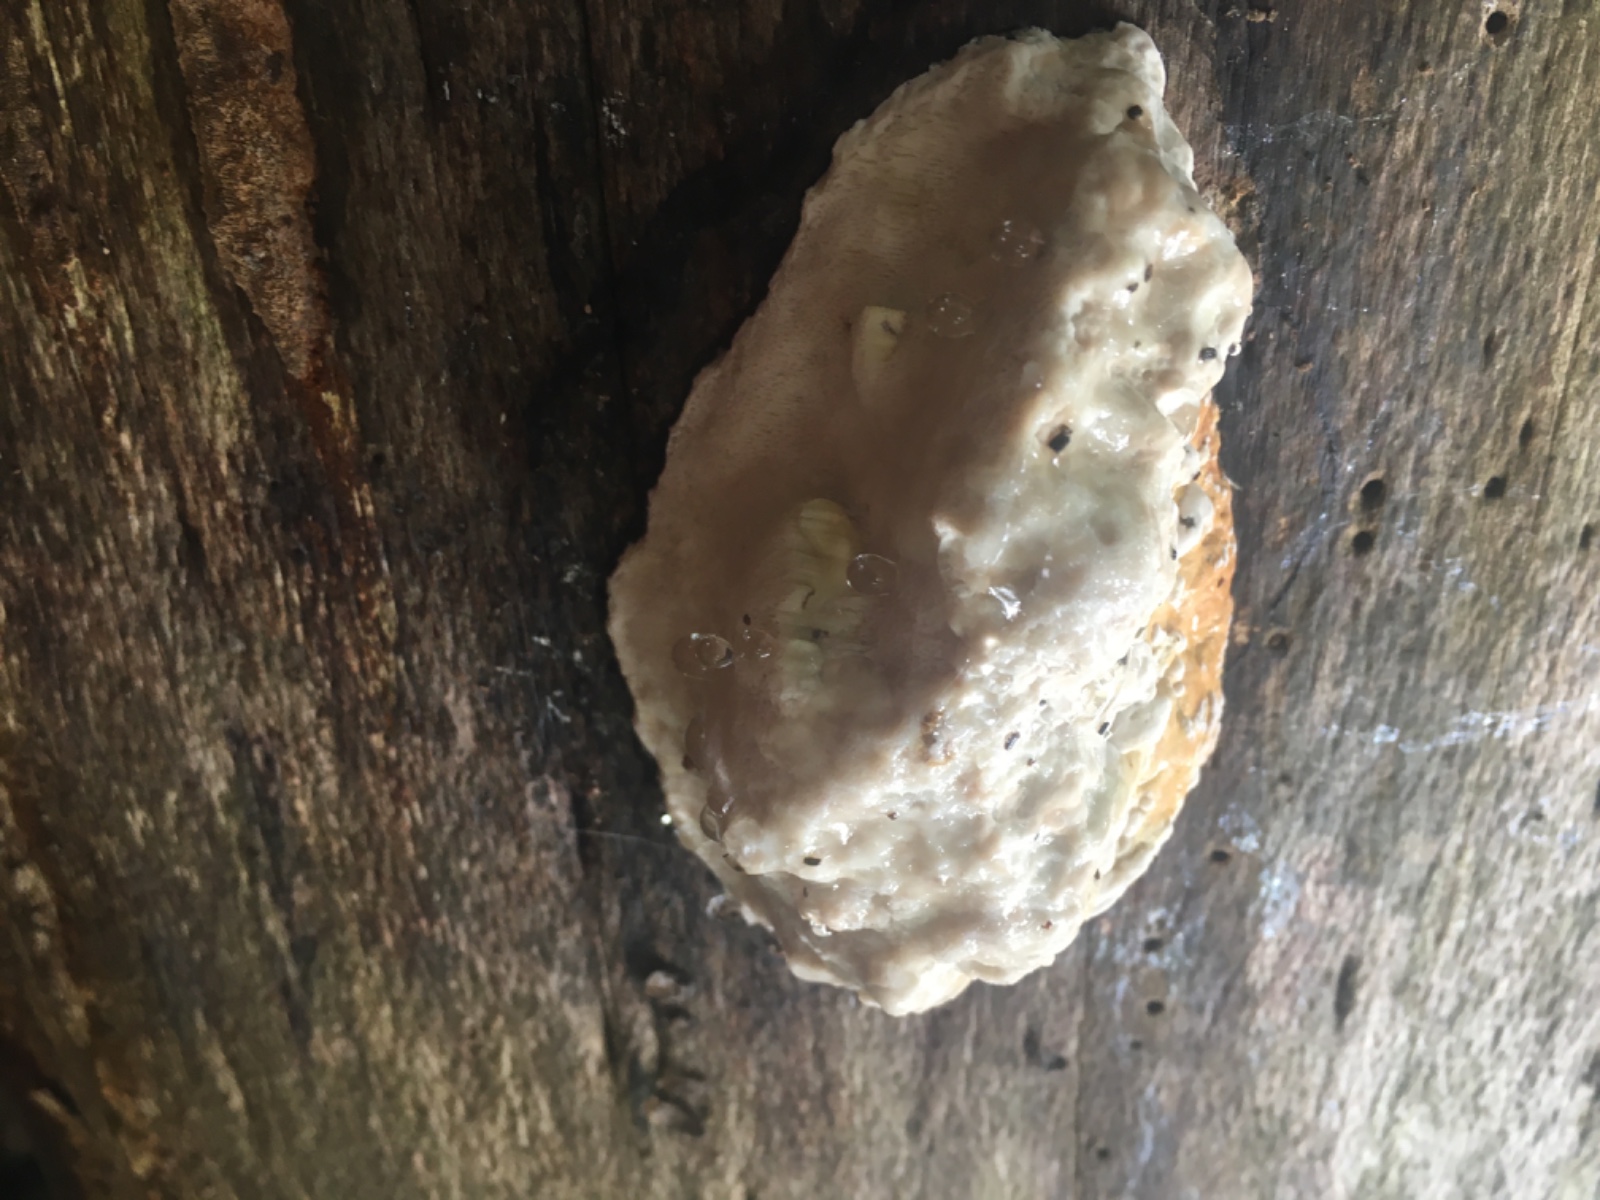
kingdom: Fungi
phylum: Basidiomycota
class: Agaricomycetes
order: Polyporales
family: Fomitopsidaceae
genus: Fomitopsis
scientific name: Fomitopsis pinicola
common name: randbæltet hovporesvamp
